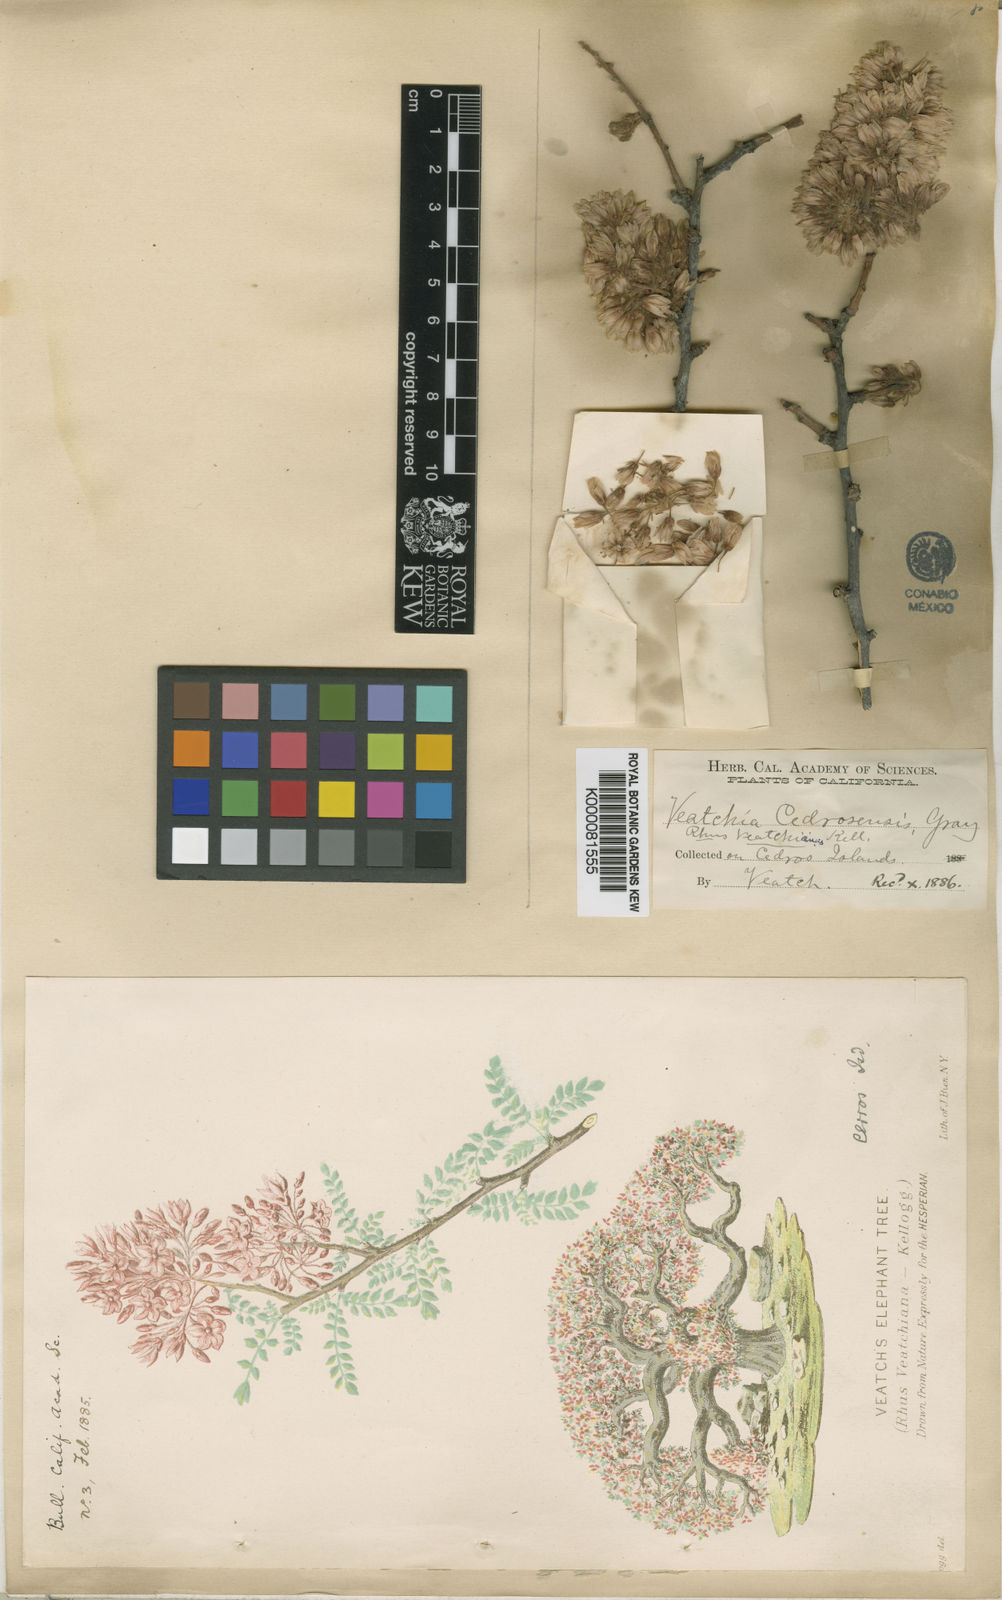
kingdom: Plantae
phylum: Tracheophyta
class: Magnoliopsida
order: Sapindales
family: Anacardiaceae
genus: Pachycormus
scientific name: Pachycormus
